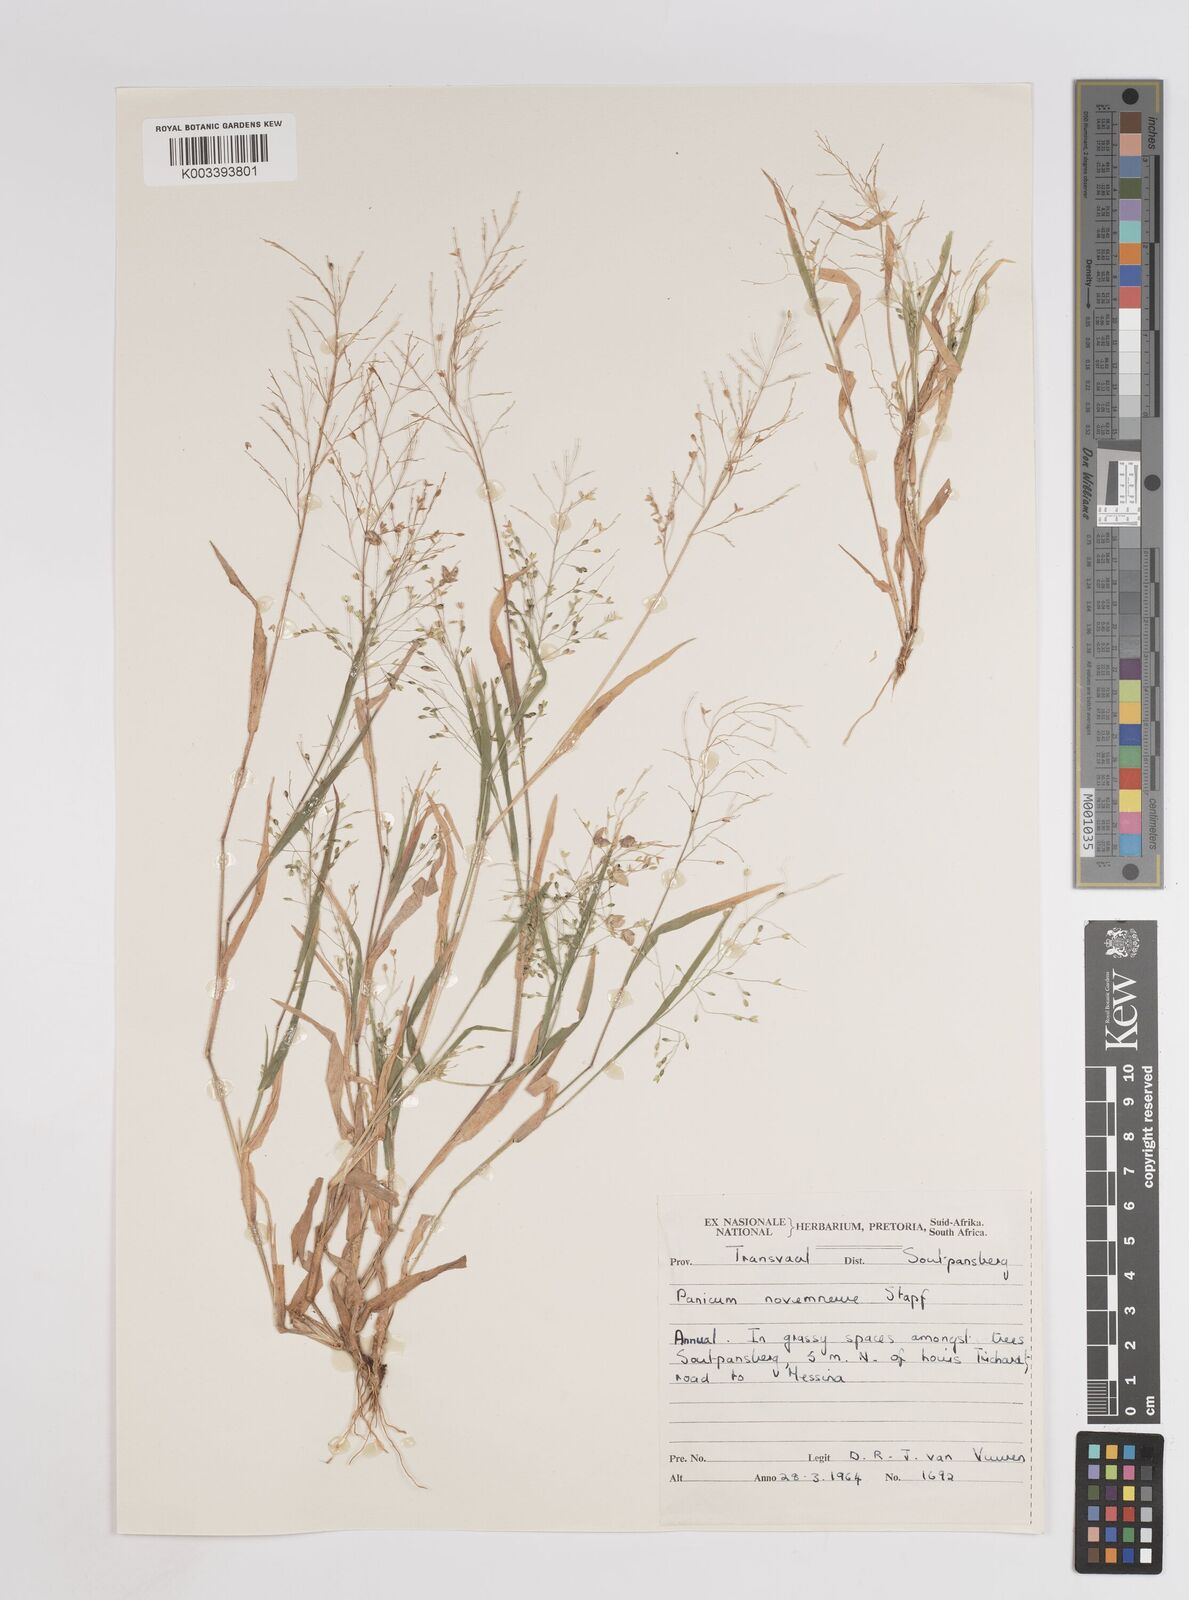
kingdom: Plantae
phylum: Tracheophyta
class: Liliopsida
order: Poales
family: Poaceae
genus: Panicum
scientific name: Panicum novemnerve
